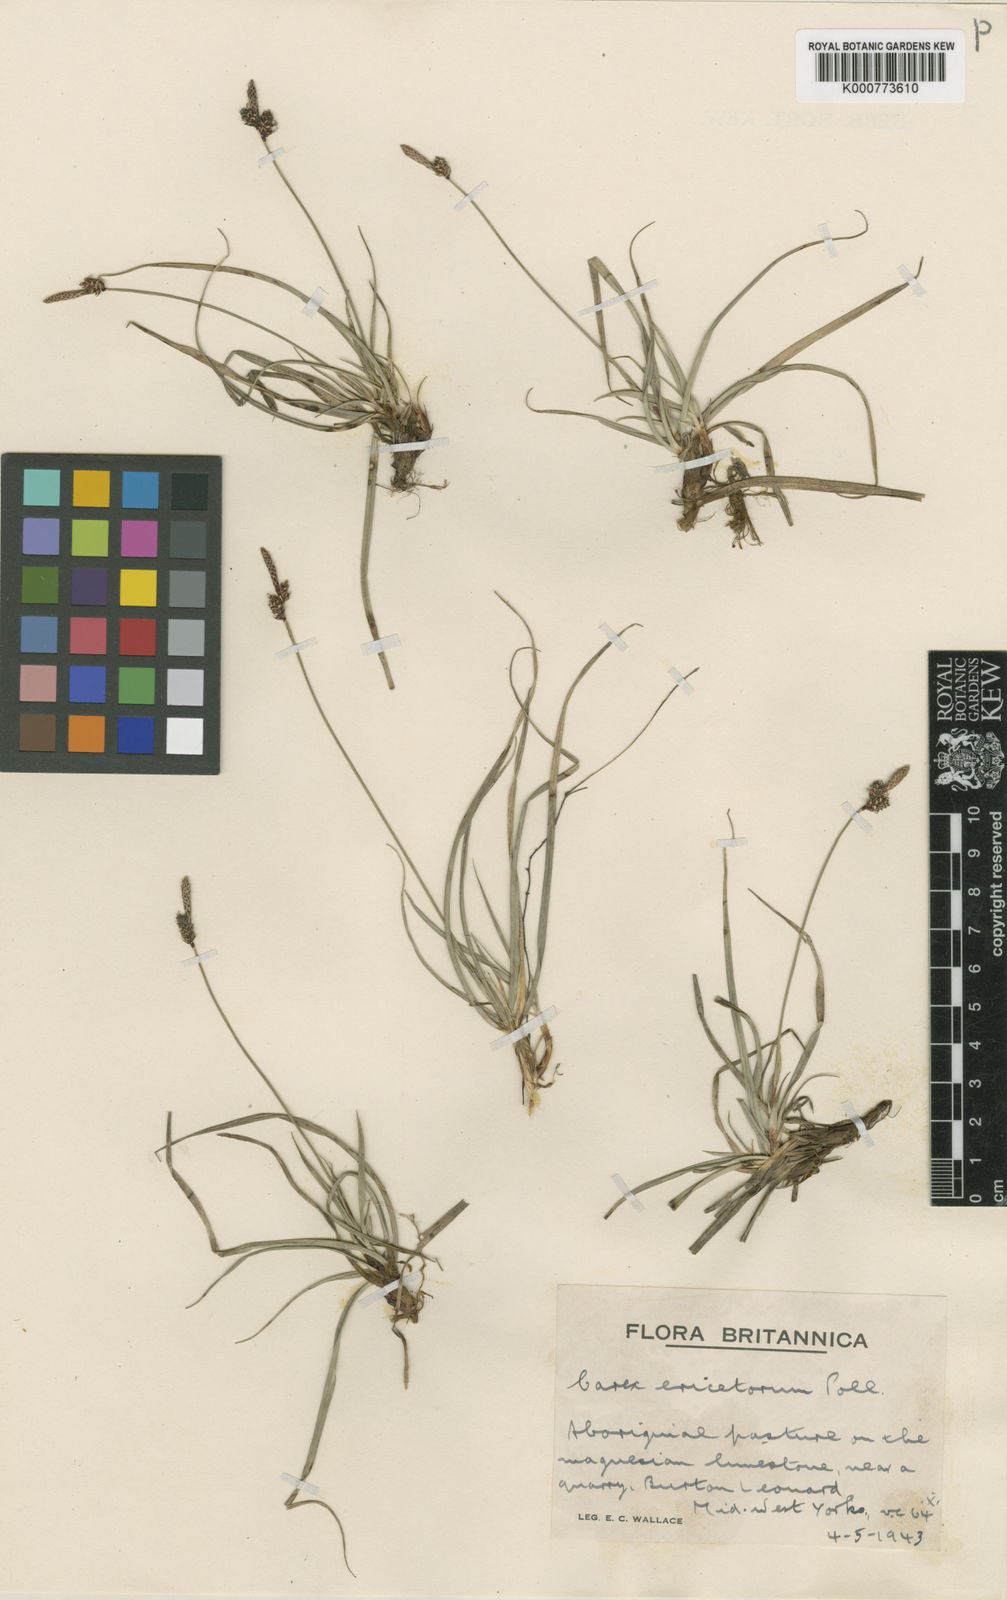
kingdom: Plantae
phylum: Tracheophyta
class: Liliopsida
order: Poales
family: Cyperaceae
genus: Carex
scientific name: Carex ericetorum
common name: Rare spring-sedge
